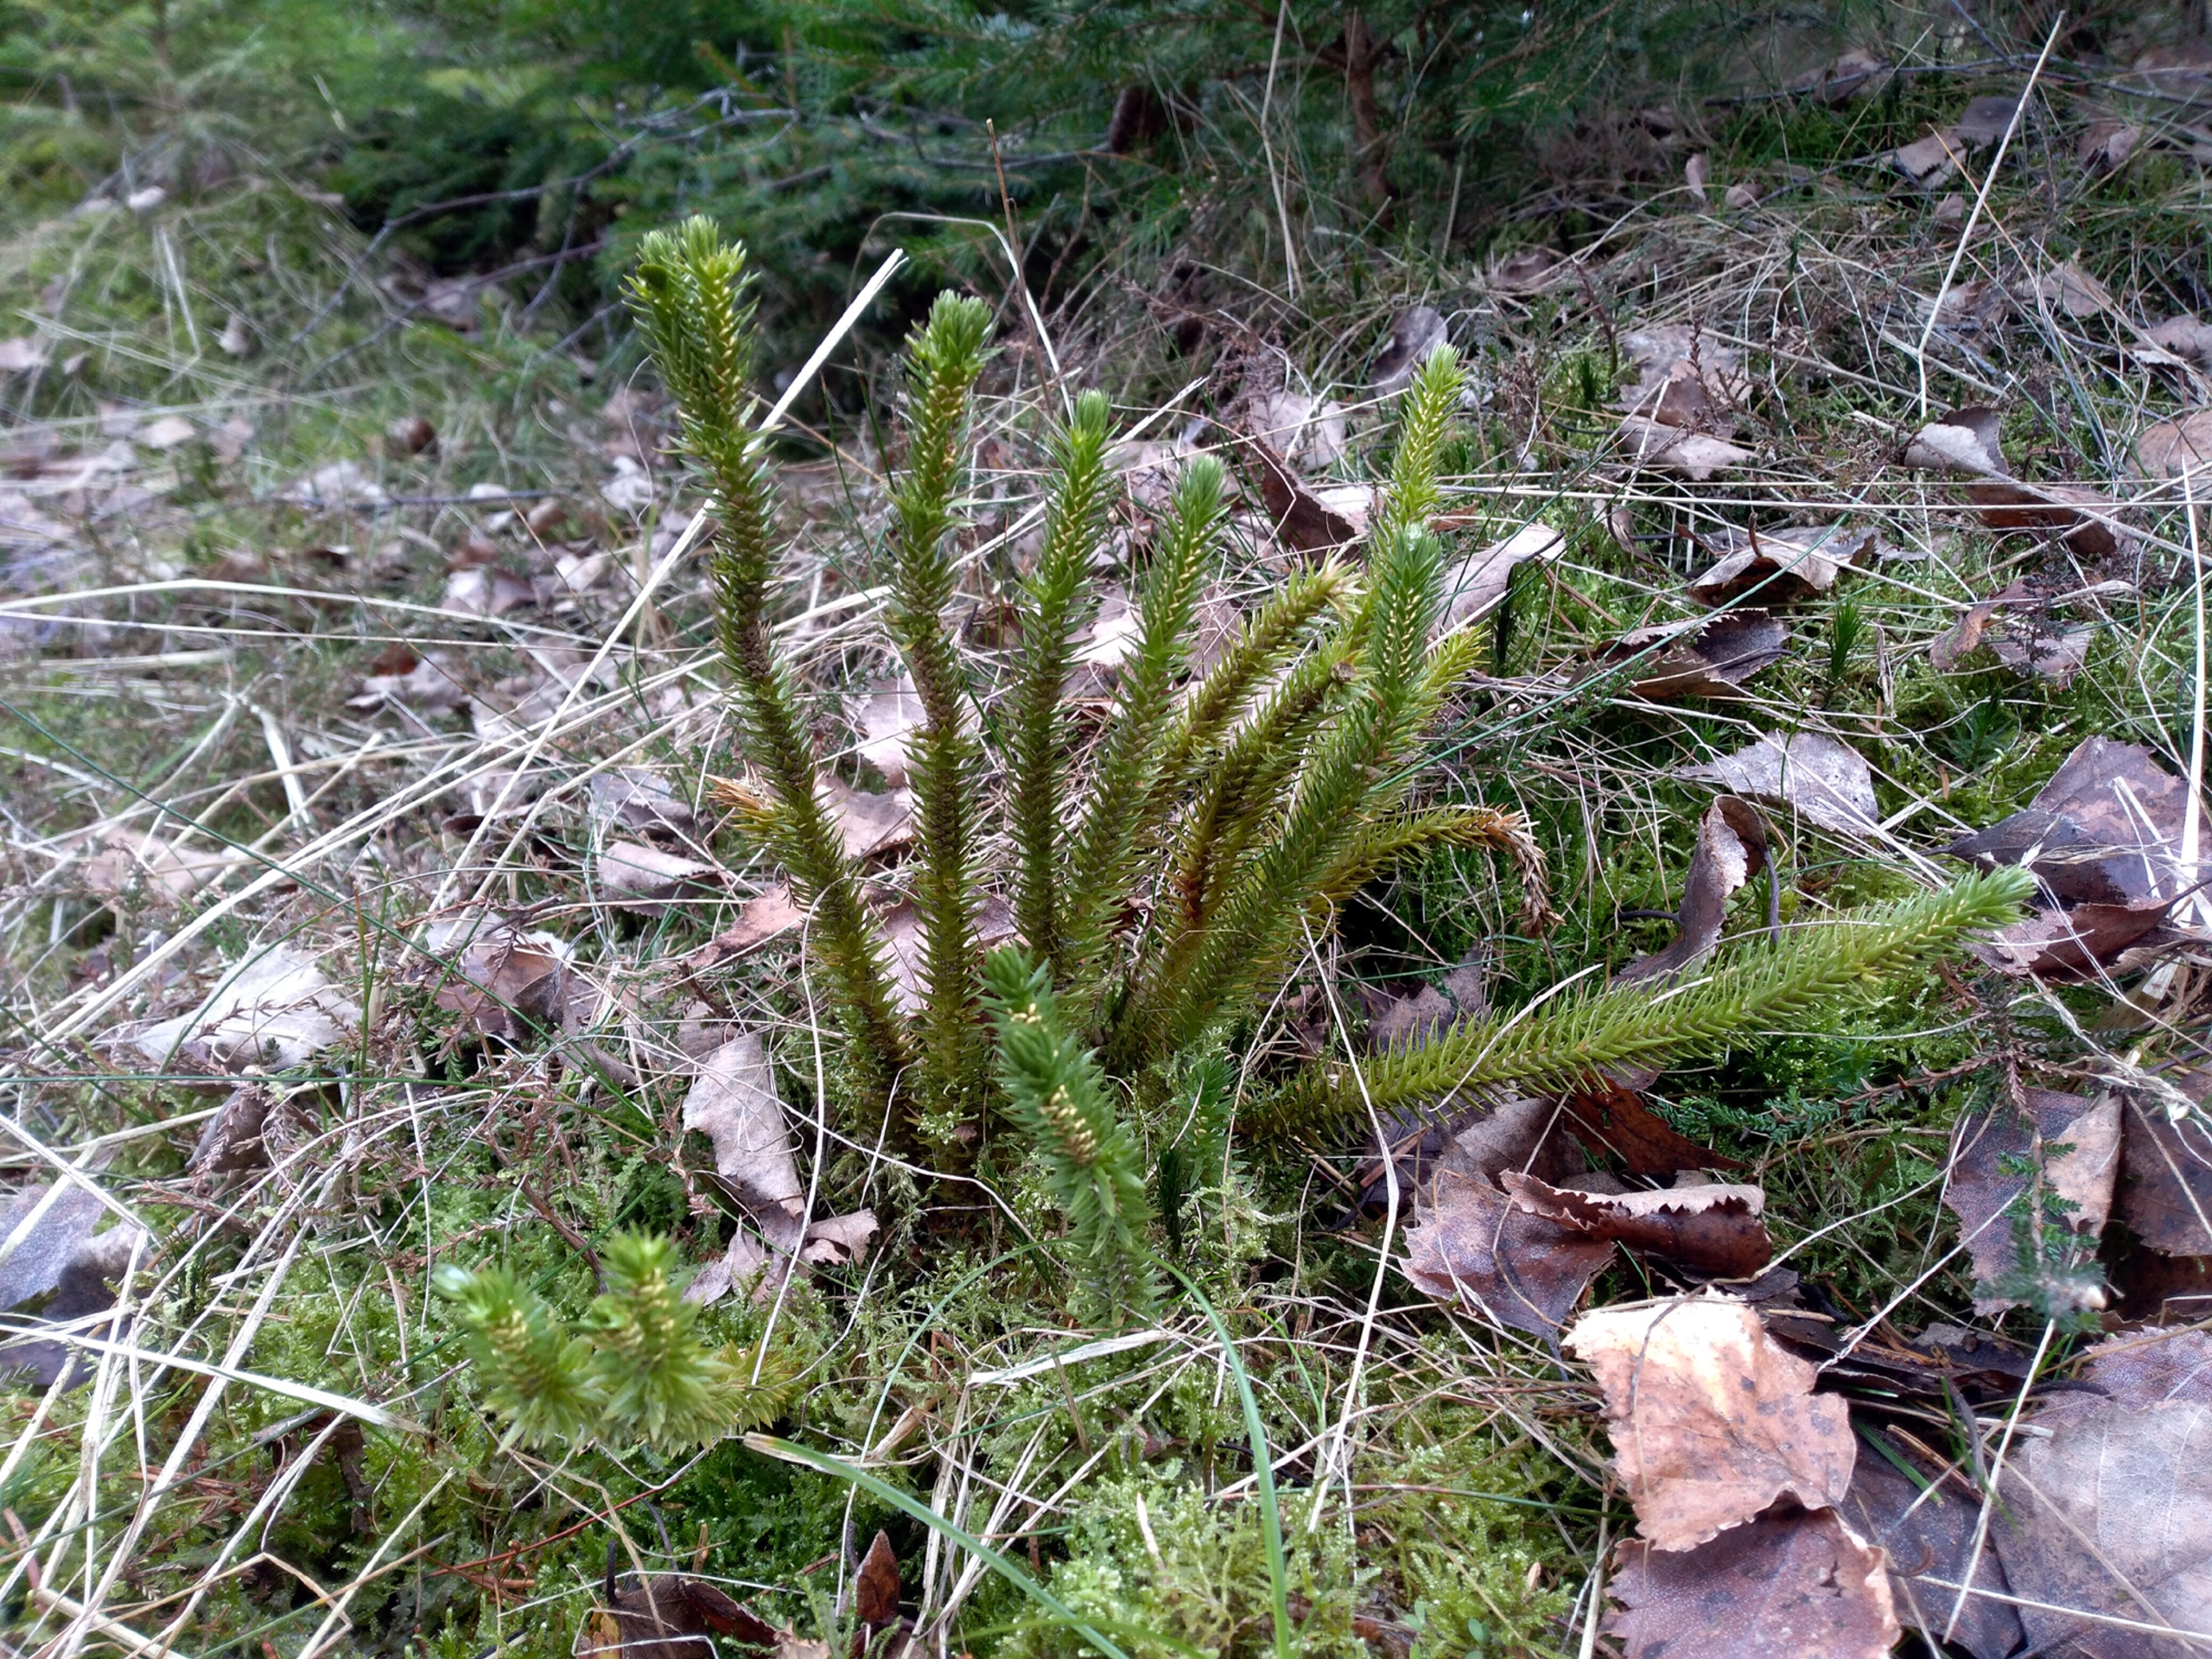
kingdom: Plantae
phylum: Tracheophyta
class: Lycopodiopsida
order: Lycopodiales
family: Lycopodiaceae
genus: Huperzia
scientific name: Huperzia selago
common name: Otteradet ulvefod
